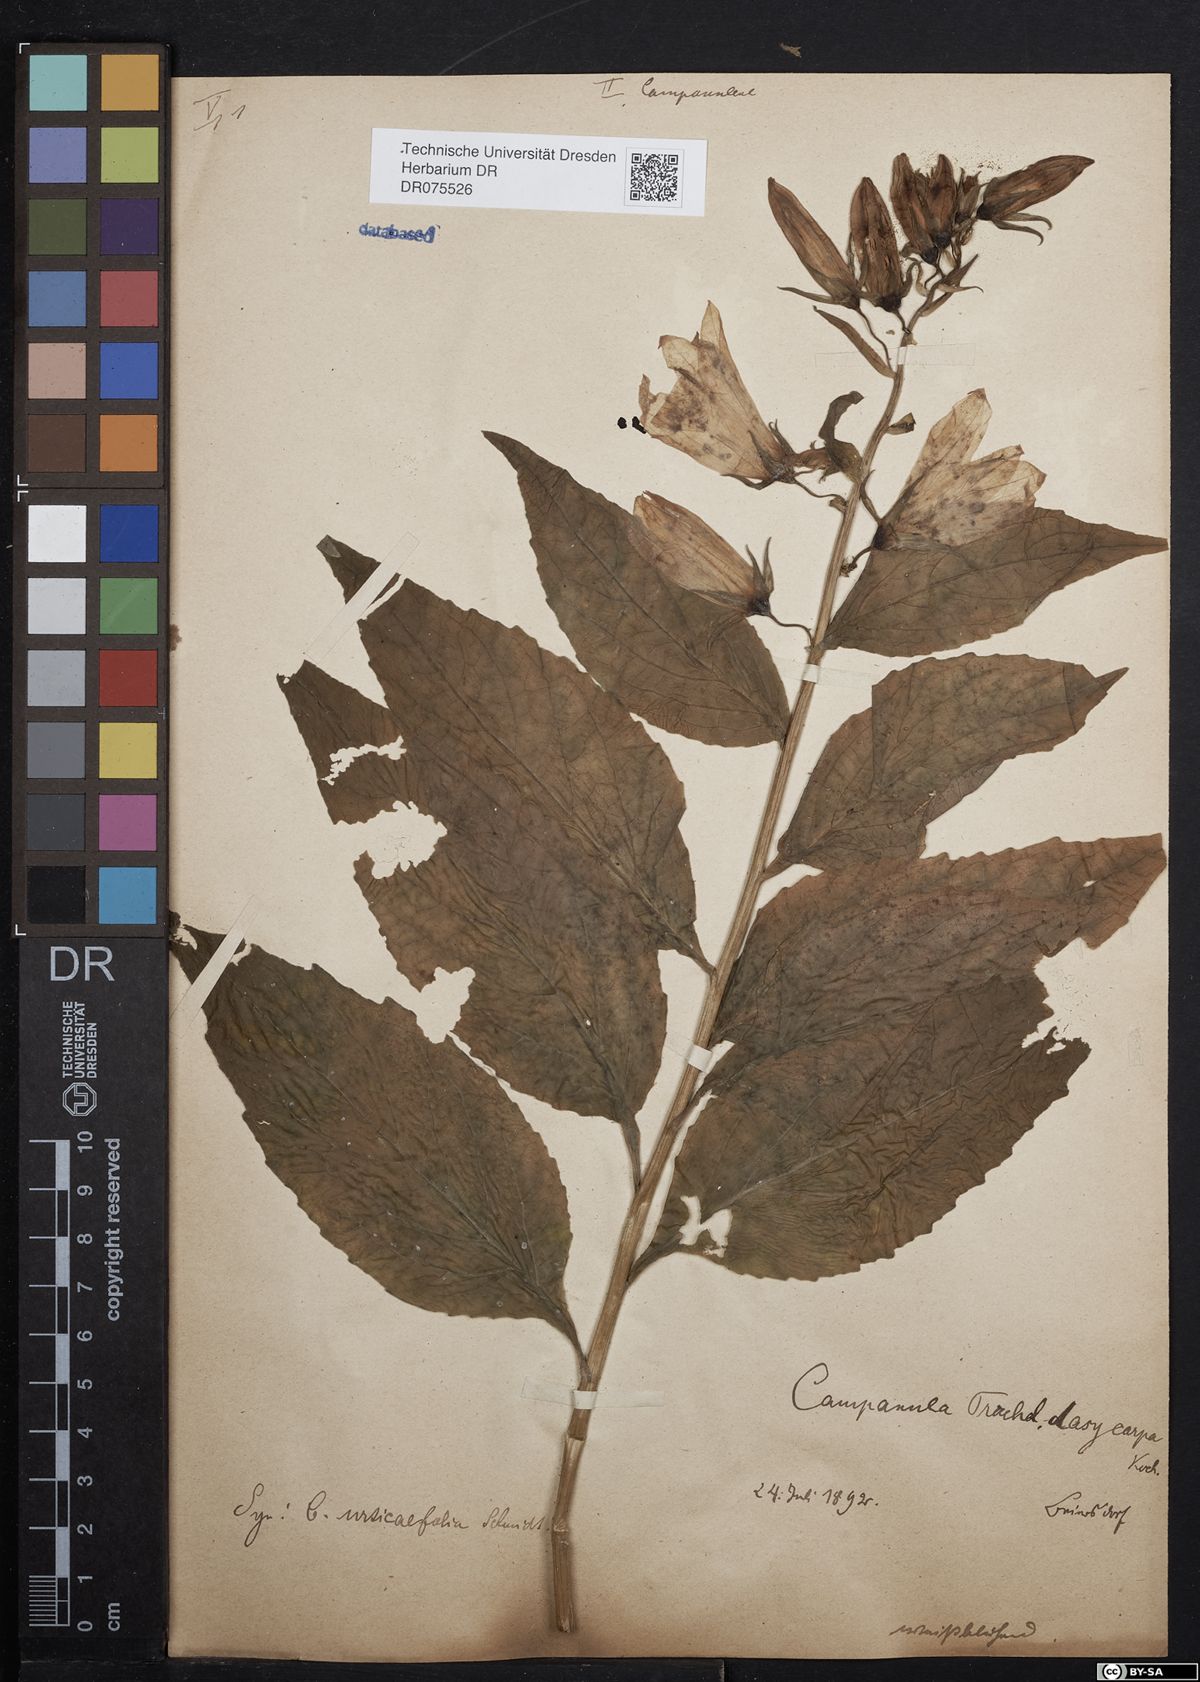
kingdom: Plantae
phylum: Tracheophyta
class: Magnoliopsida
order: Asterales
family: Campanulaceae
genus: Campanula
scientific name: Campanula trachelium
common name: Nettle-leaved bellflower
